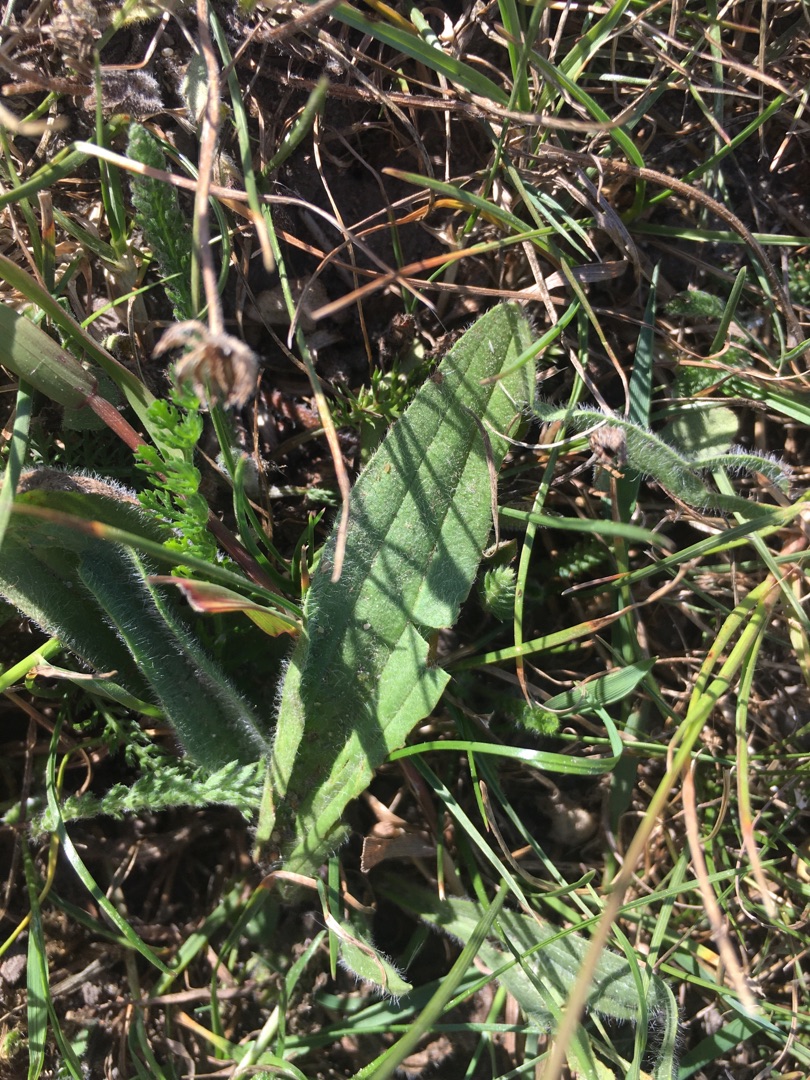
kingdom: Plantae
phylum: Tracheophyta
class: Magnoliopsida
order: Lamiales
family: Plantaginaceae
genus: Plantago
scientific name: Plantago lanceolata
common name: Lancet-vejbred
